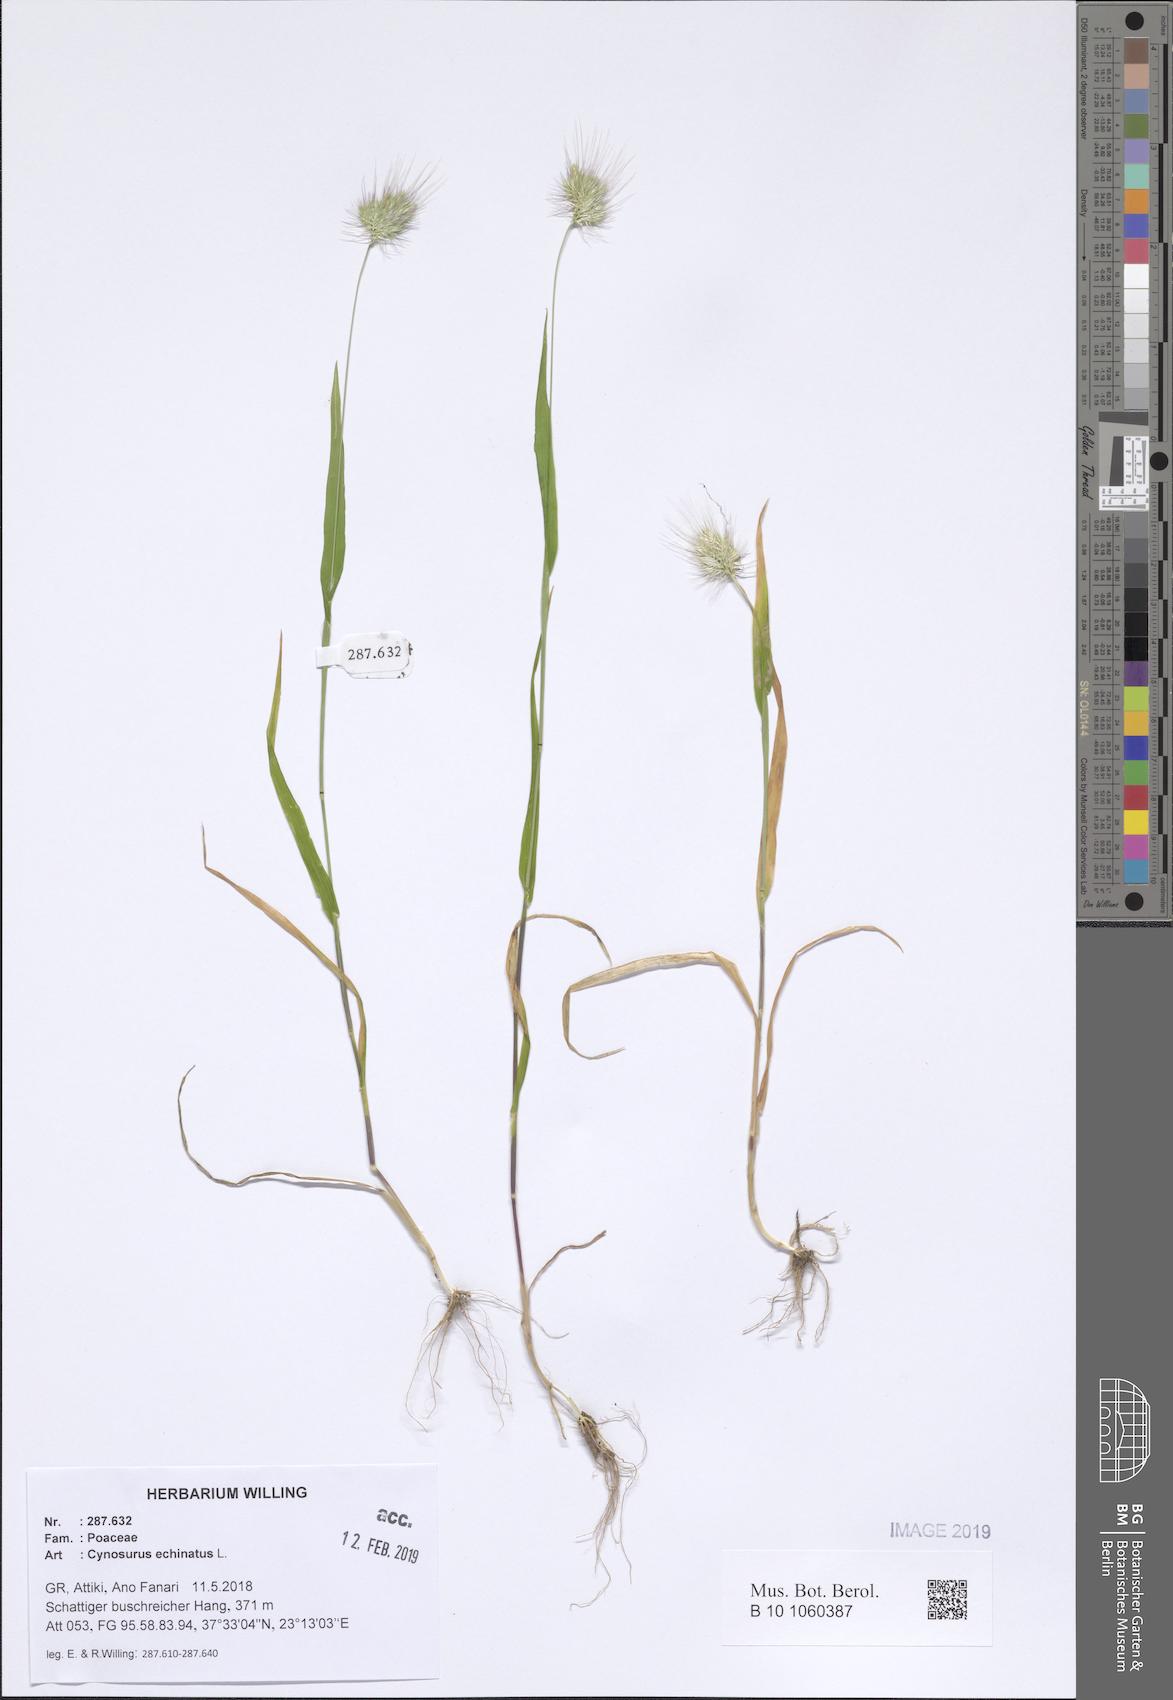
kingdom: Plantae
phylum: Tracheophyta
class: Liliopsida
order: Poales
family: Poaceae
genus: Cynosurus
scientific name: Cynosurus echinatus
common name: Rough dog's-tail
